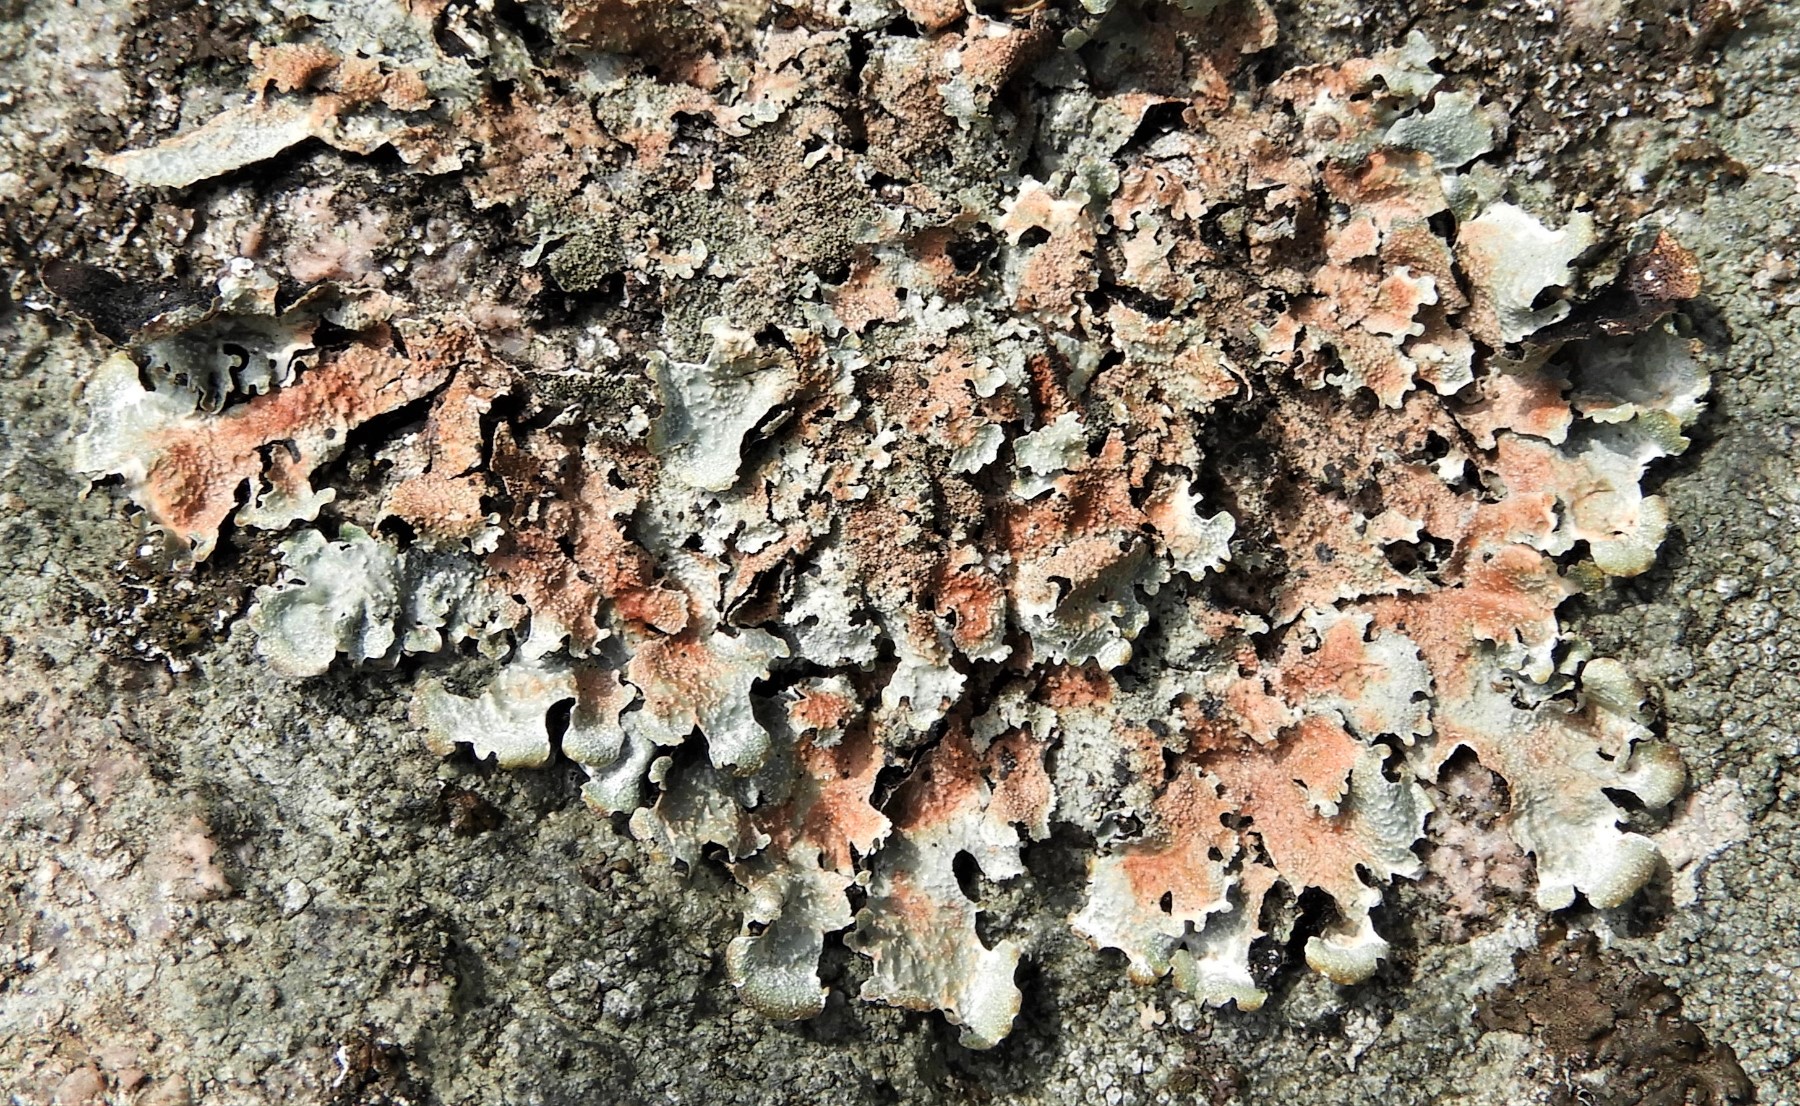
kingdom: Fungi
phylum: Ascomycota
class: Lecanoromycetes
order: Lecanorales
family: Parmeliaceae
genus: Parmelia
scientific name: Parmelia saxatilis
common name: farve-skållav
